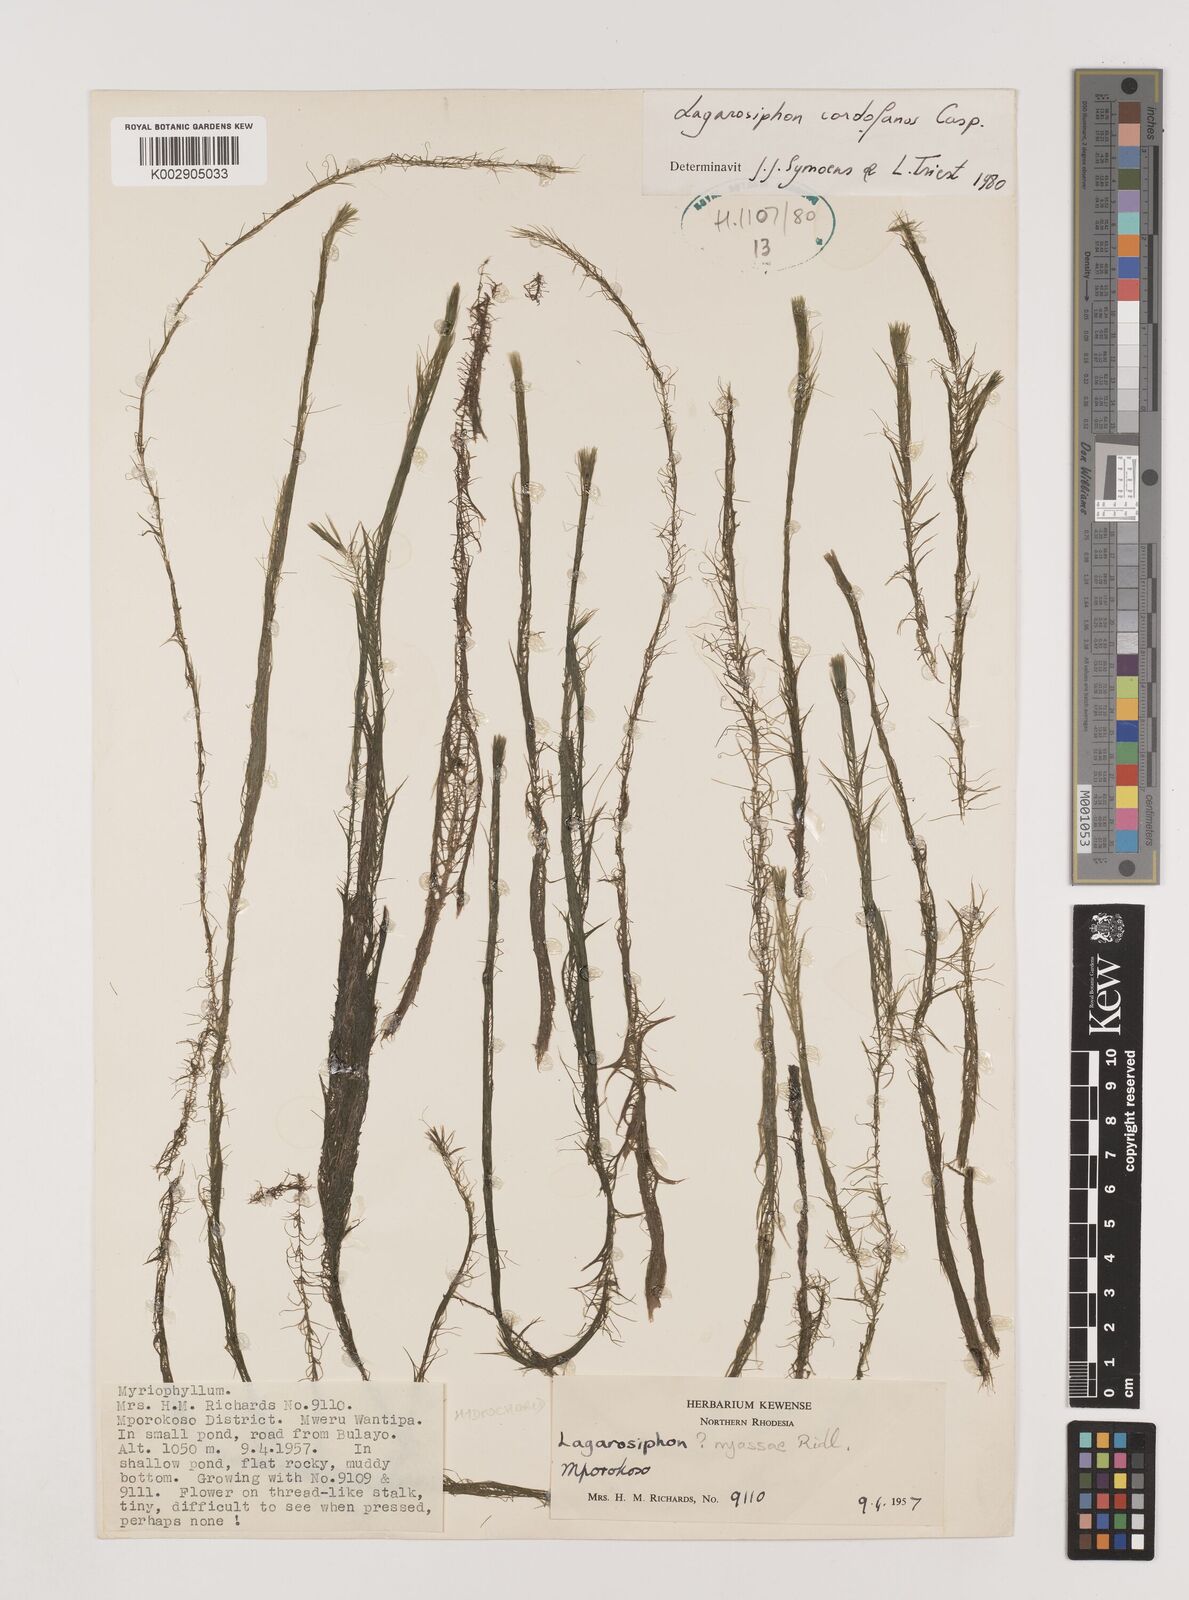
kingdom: Plantae
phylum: Tracheophyta
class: Liliopsida
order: Alismatales
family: Hydrocharitaceae
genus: Lagarosiphon
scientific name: Lagarosiphon cordofanus
